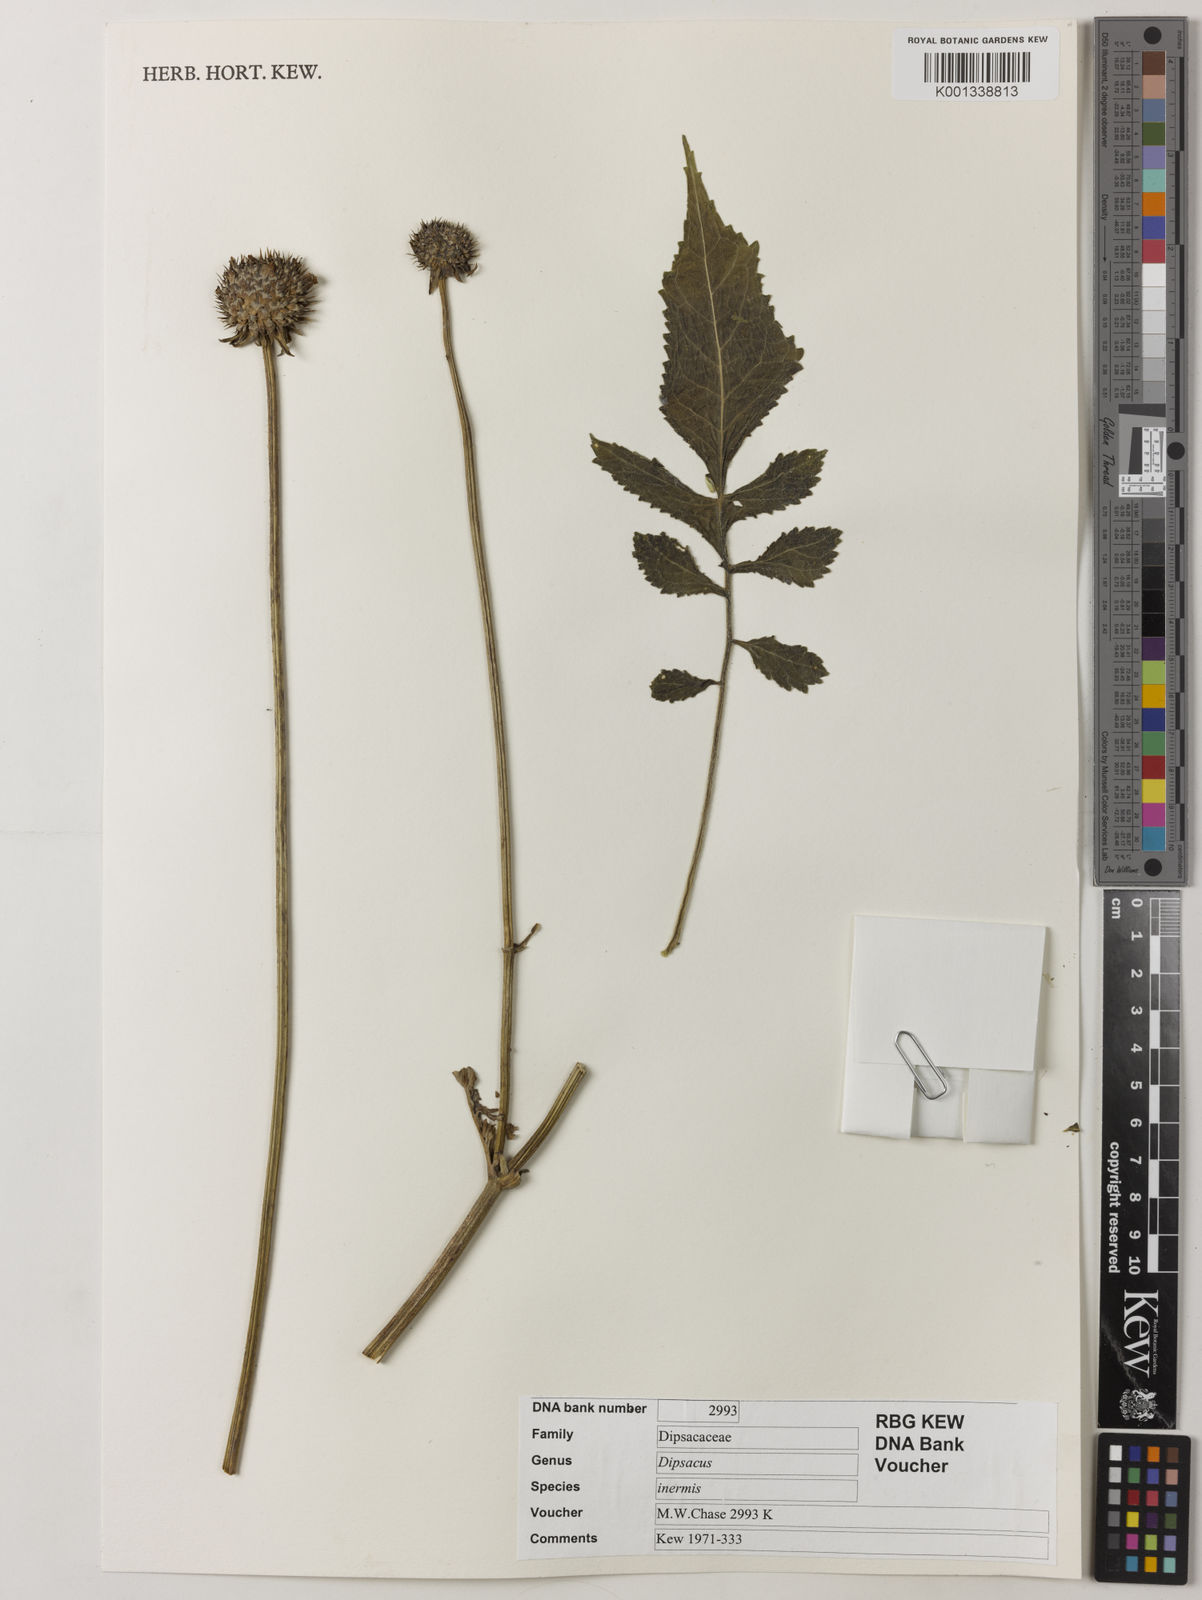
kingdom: Plantae
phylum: Tracheophyta
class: Magnoliopsida
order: Dipsacales
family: Caprifoliaceae
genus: Dipsacus
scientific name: Dipsacus inermis
